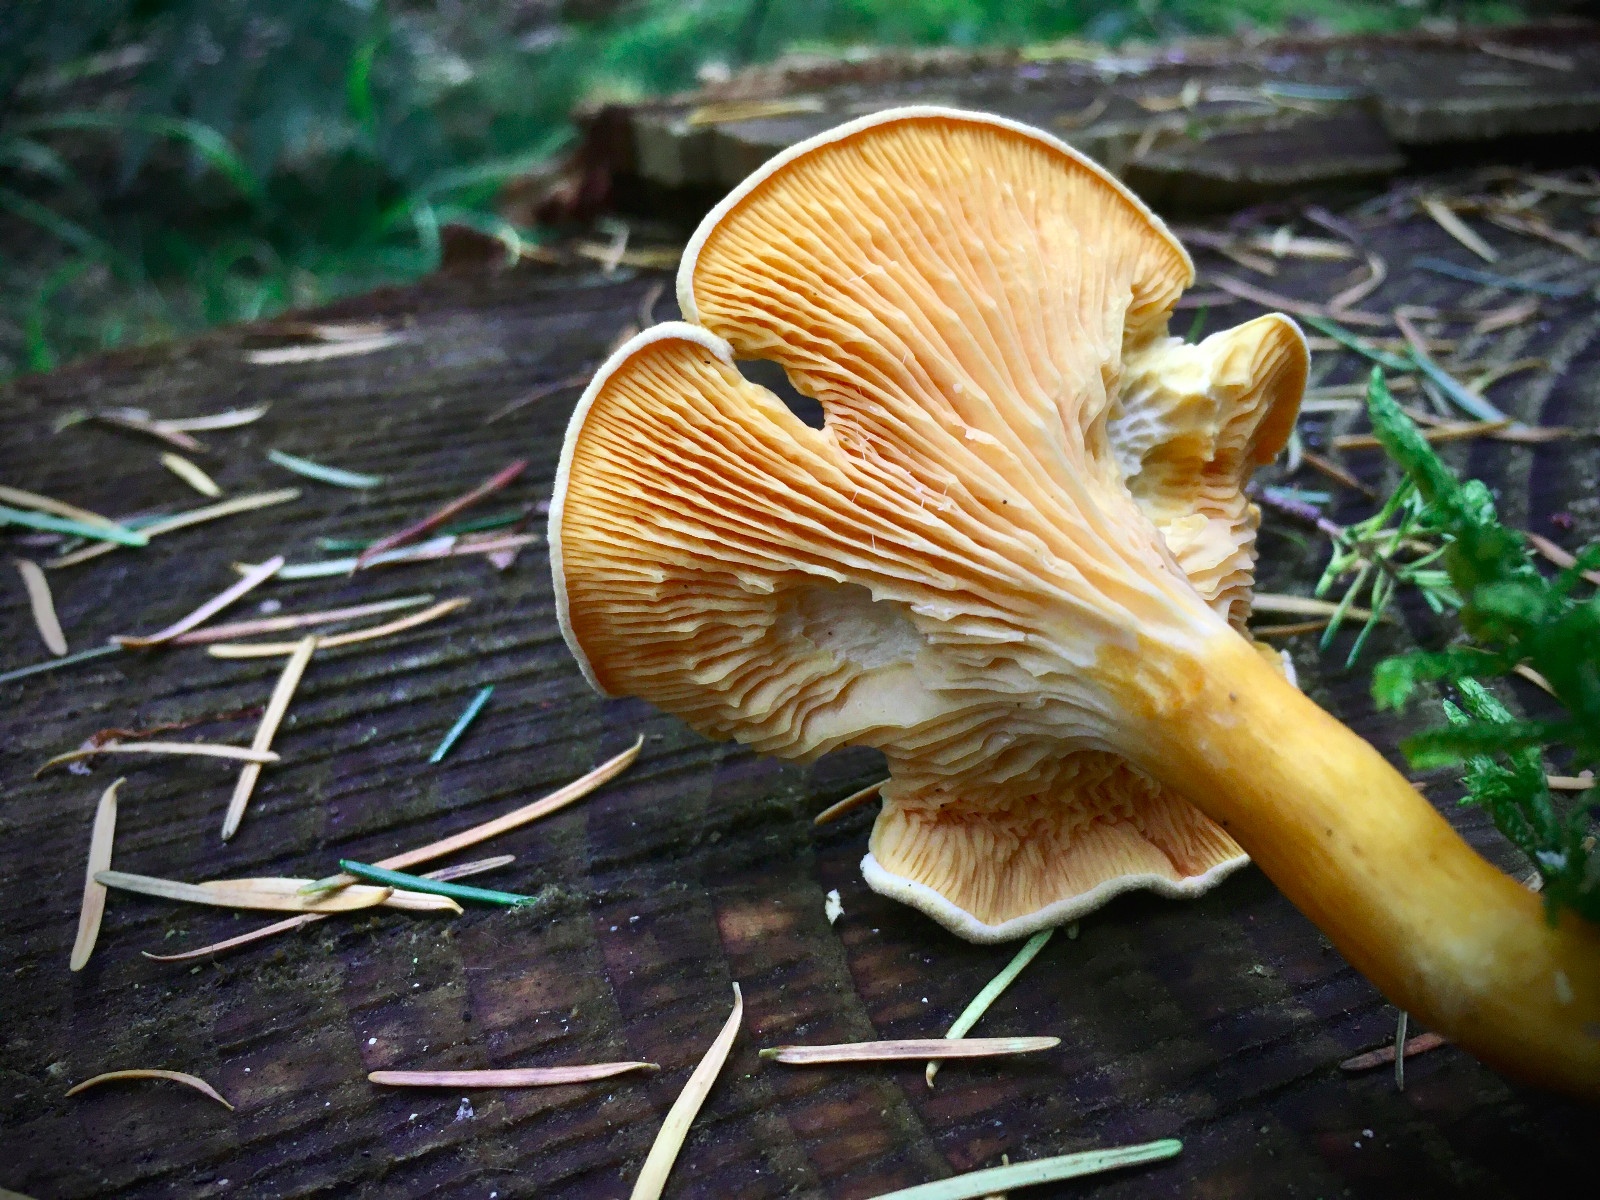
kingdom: Fungi
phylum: Basidiomycota
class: Agaricomycetes
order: Boletales
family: Hygrophoropsidaceae
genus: Hygrophoropsis
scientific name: Hygrophoropsis aurantiaca
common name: almindelig orangekantarel
